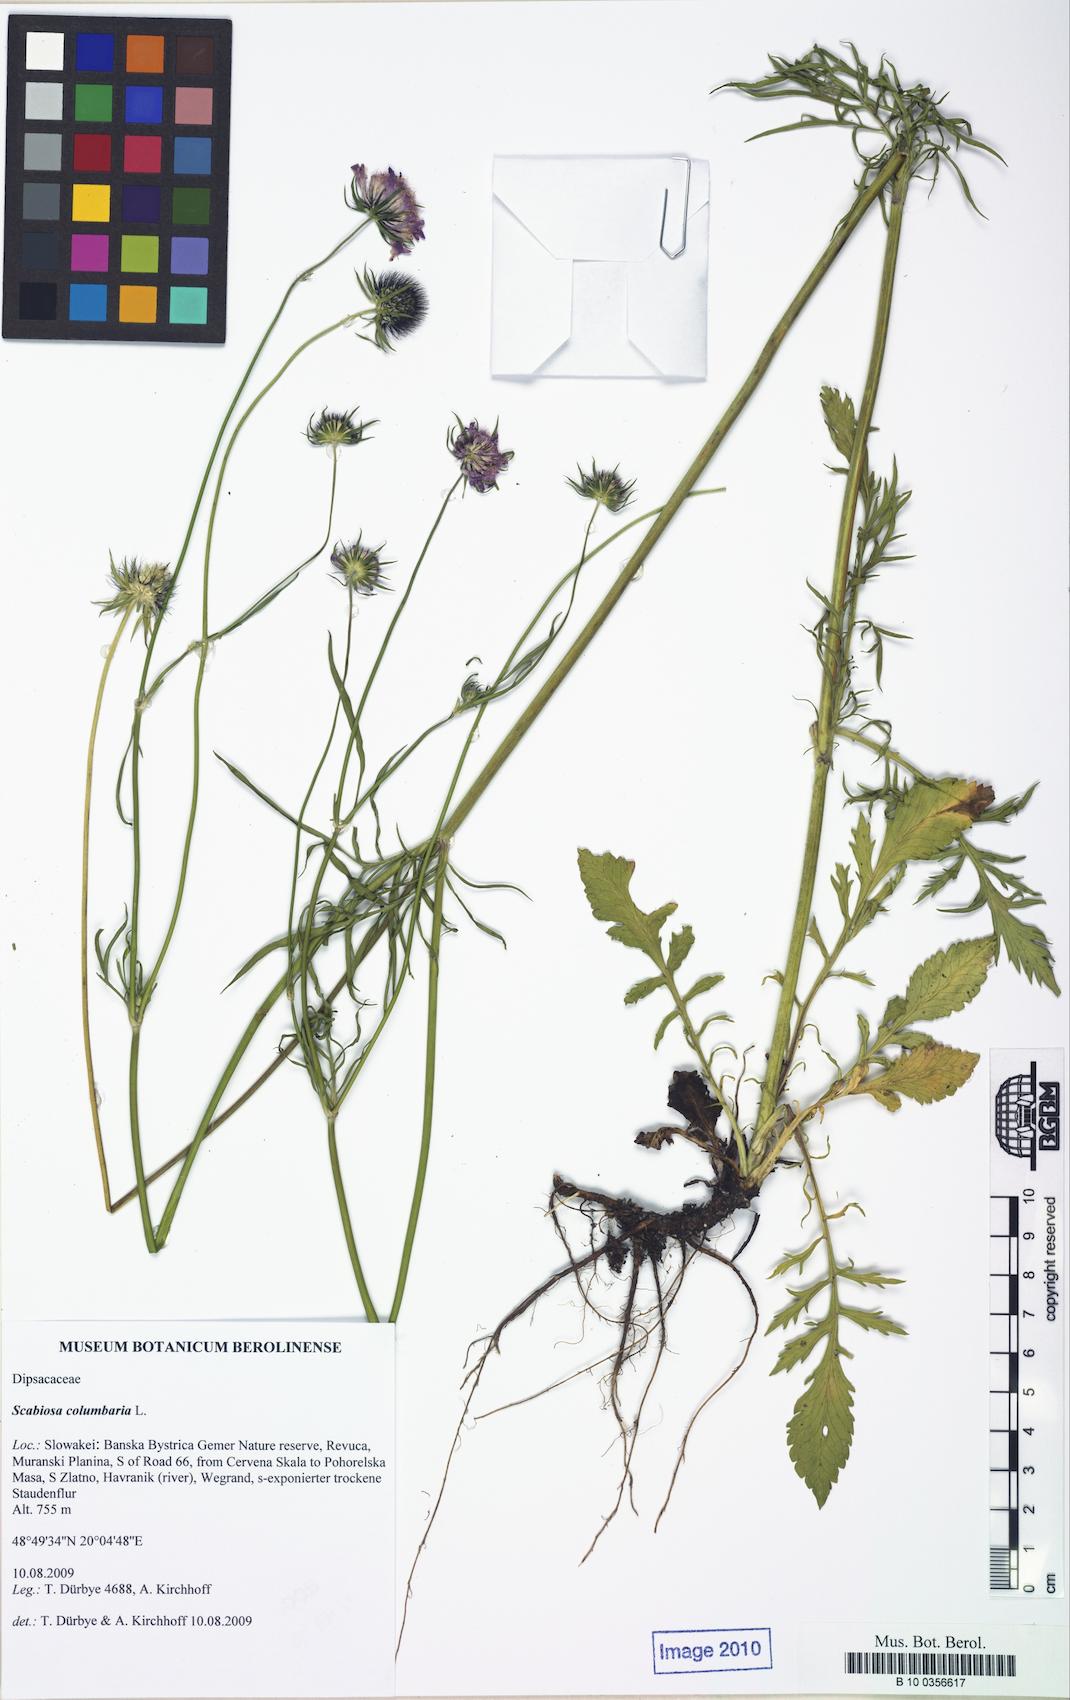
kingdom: Plantae
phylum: Tracheophyta
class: Magnoliopsida
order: Dipsacales
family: Caprifoliaceae
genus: Scabiosa
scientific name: Scabiosa columbaria
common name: Small scabious
